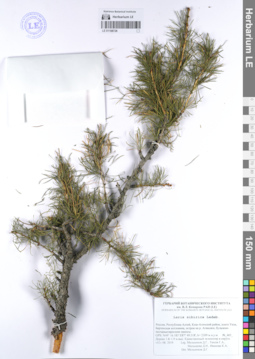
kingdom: Plantae
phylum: Tracheophyta
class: Pinopsida
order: Pinales
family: Pinaceae
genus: Larix
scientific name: Larix sibirica
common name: Siberian larch
